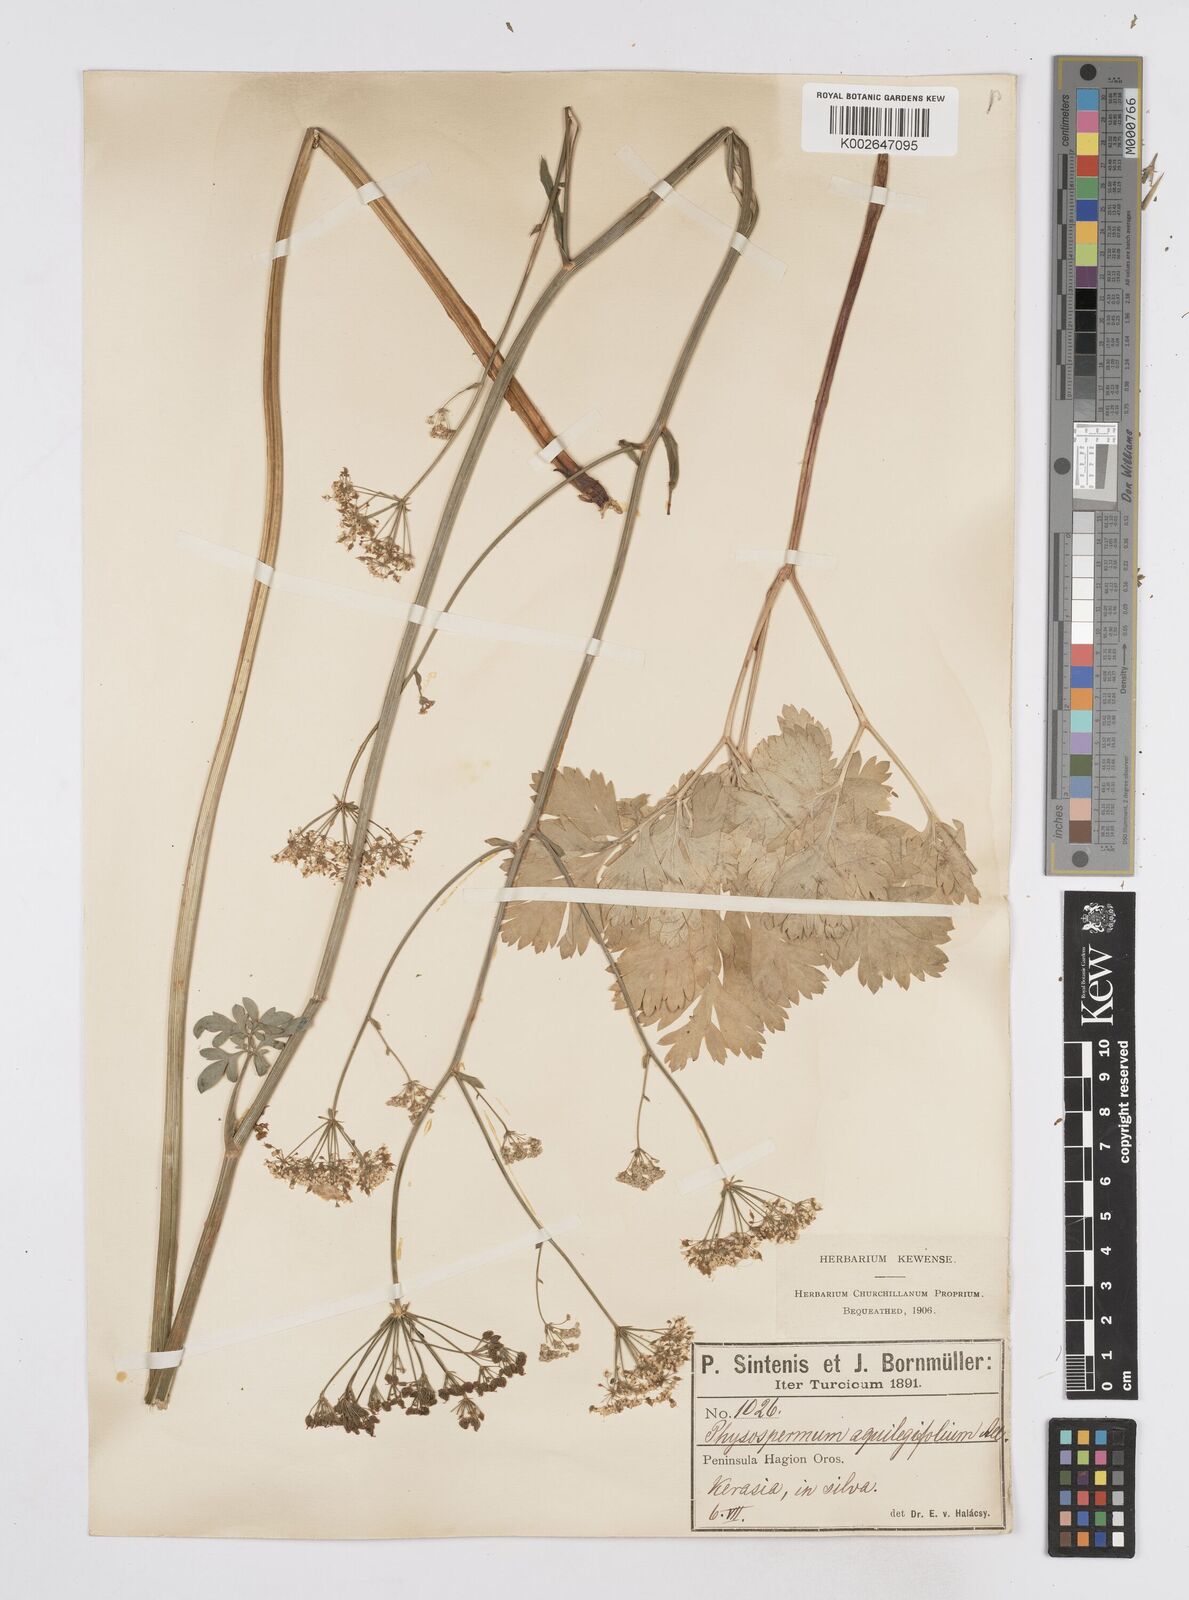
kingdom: Plantae
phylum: Tracheophyta
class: Magnoliopsida
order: Apiales
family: Apiaceae
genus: Physospermum
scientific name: Physospermum cornubiense
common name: Bladderseed
